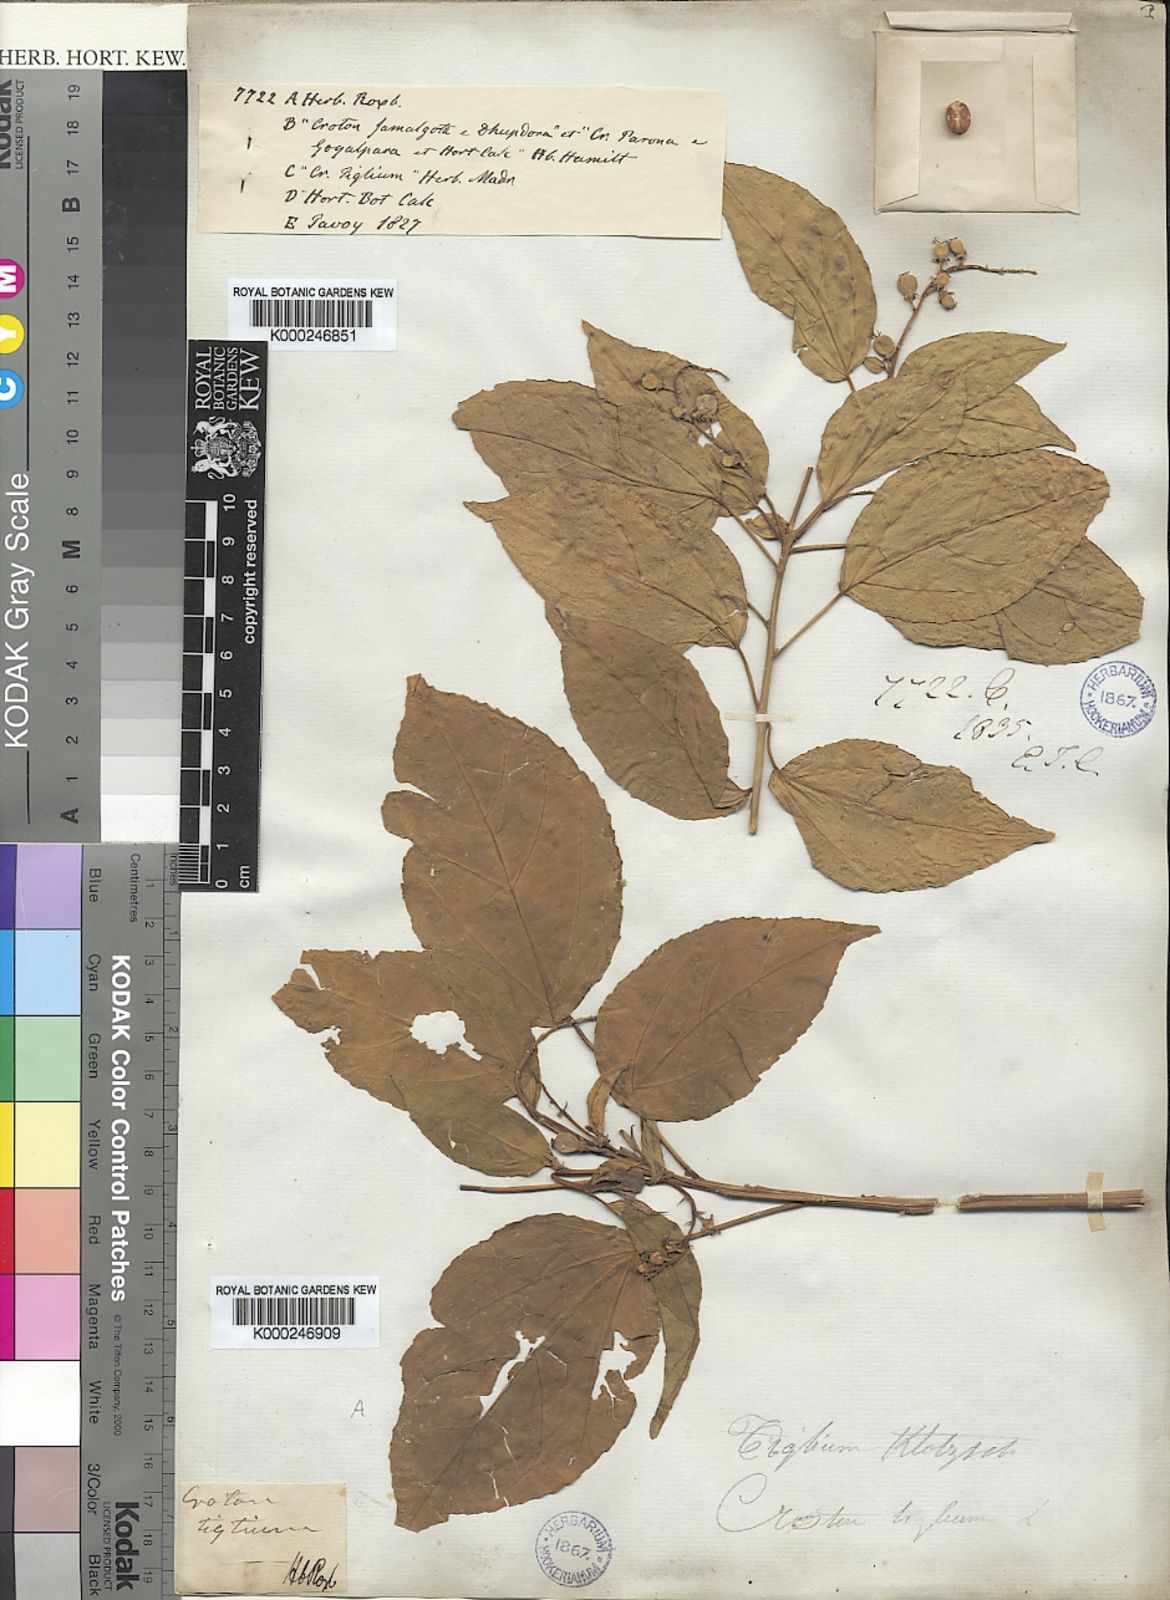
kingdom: Plantae
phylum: Tracheophyta
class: Magnoliopsida
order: Malpighiales
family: Euphorbiaceae
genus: Croton
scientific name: Croton tiglium
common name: Purging croton
